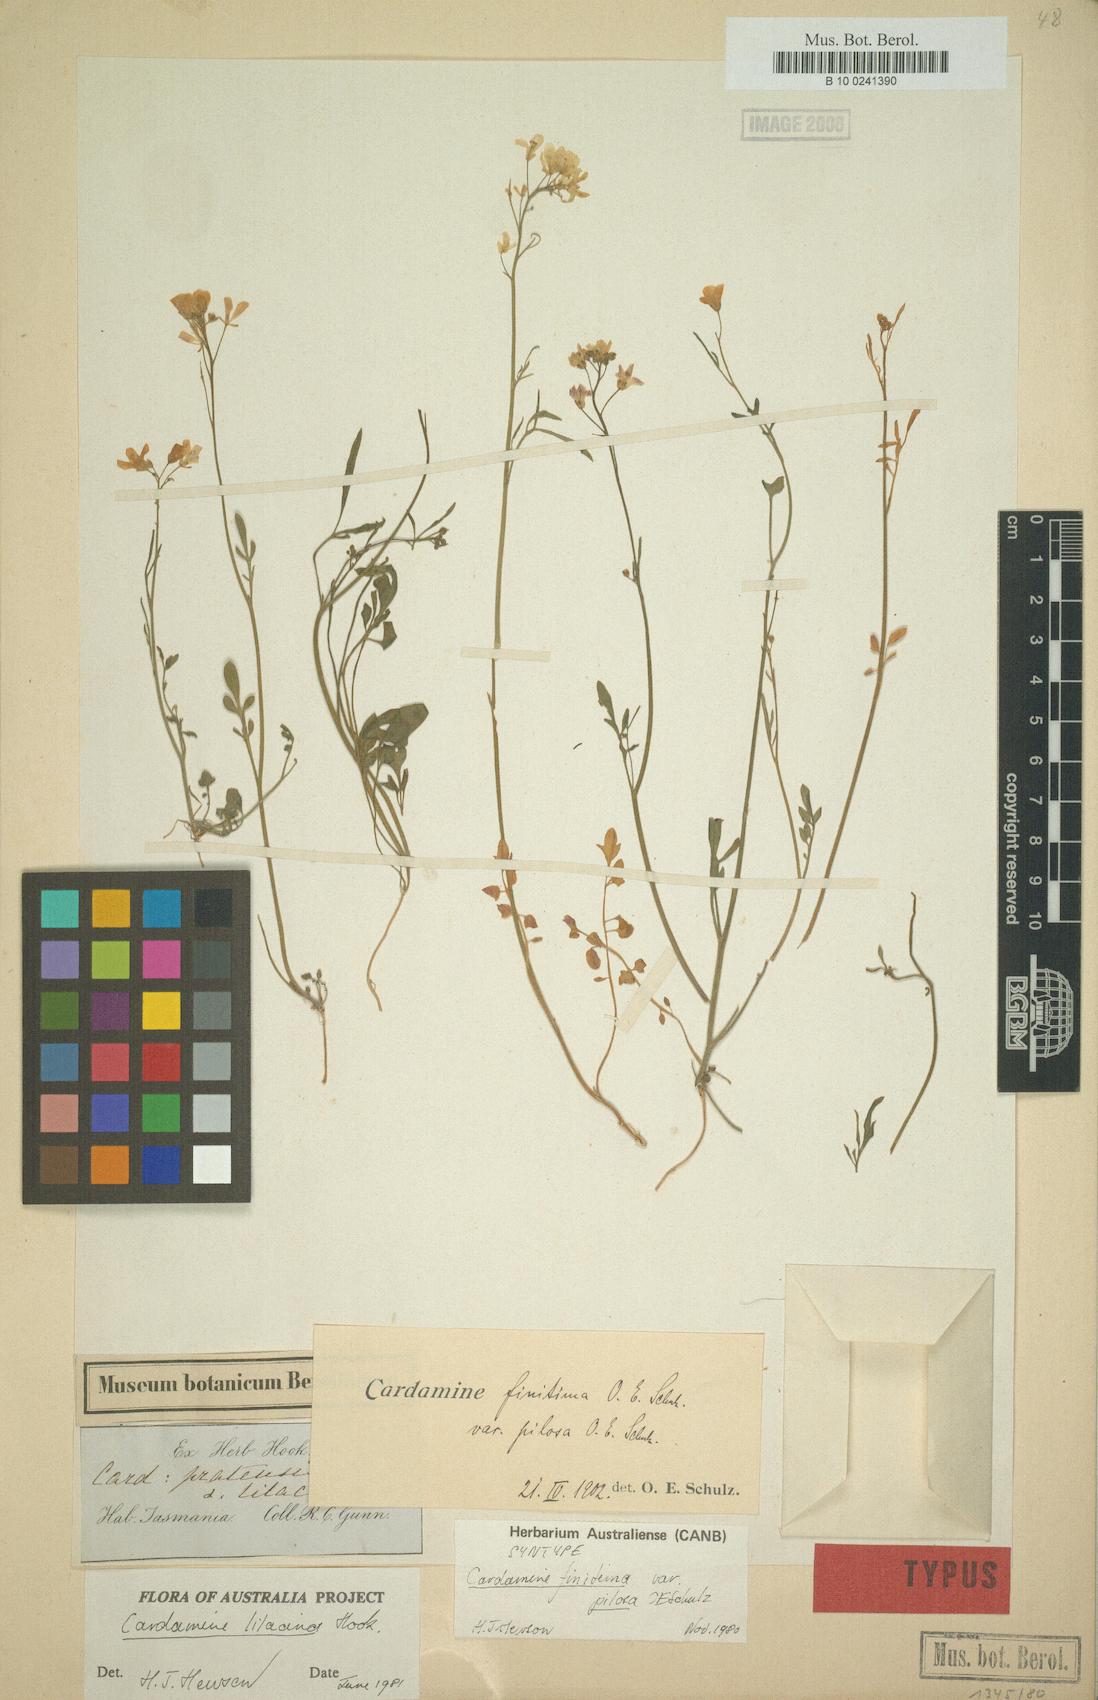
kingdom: Plantae
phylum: Tracheophyta
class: Magnoliopsida
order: Brassicales
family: Brassicaceae
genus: Cardamine
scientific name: Cardamine tenuifolia
